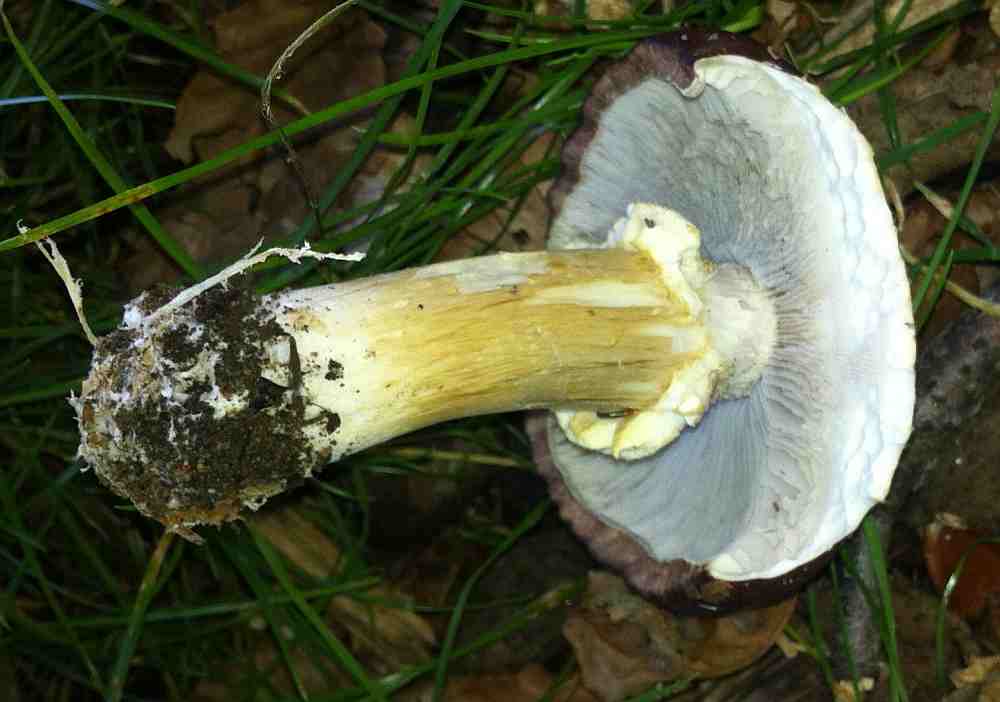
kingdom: Fungi
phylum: Basidiomycota
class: Agaricomycetes
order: Agaricales
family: Strophariaceae
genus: Stropharia
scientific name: Stropharia rugosoannulata
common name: rødbrun bredblad
